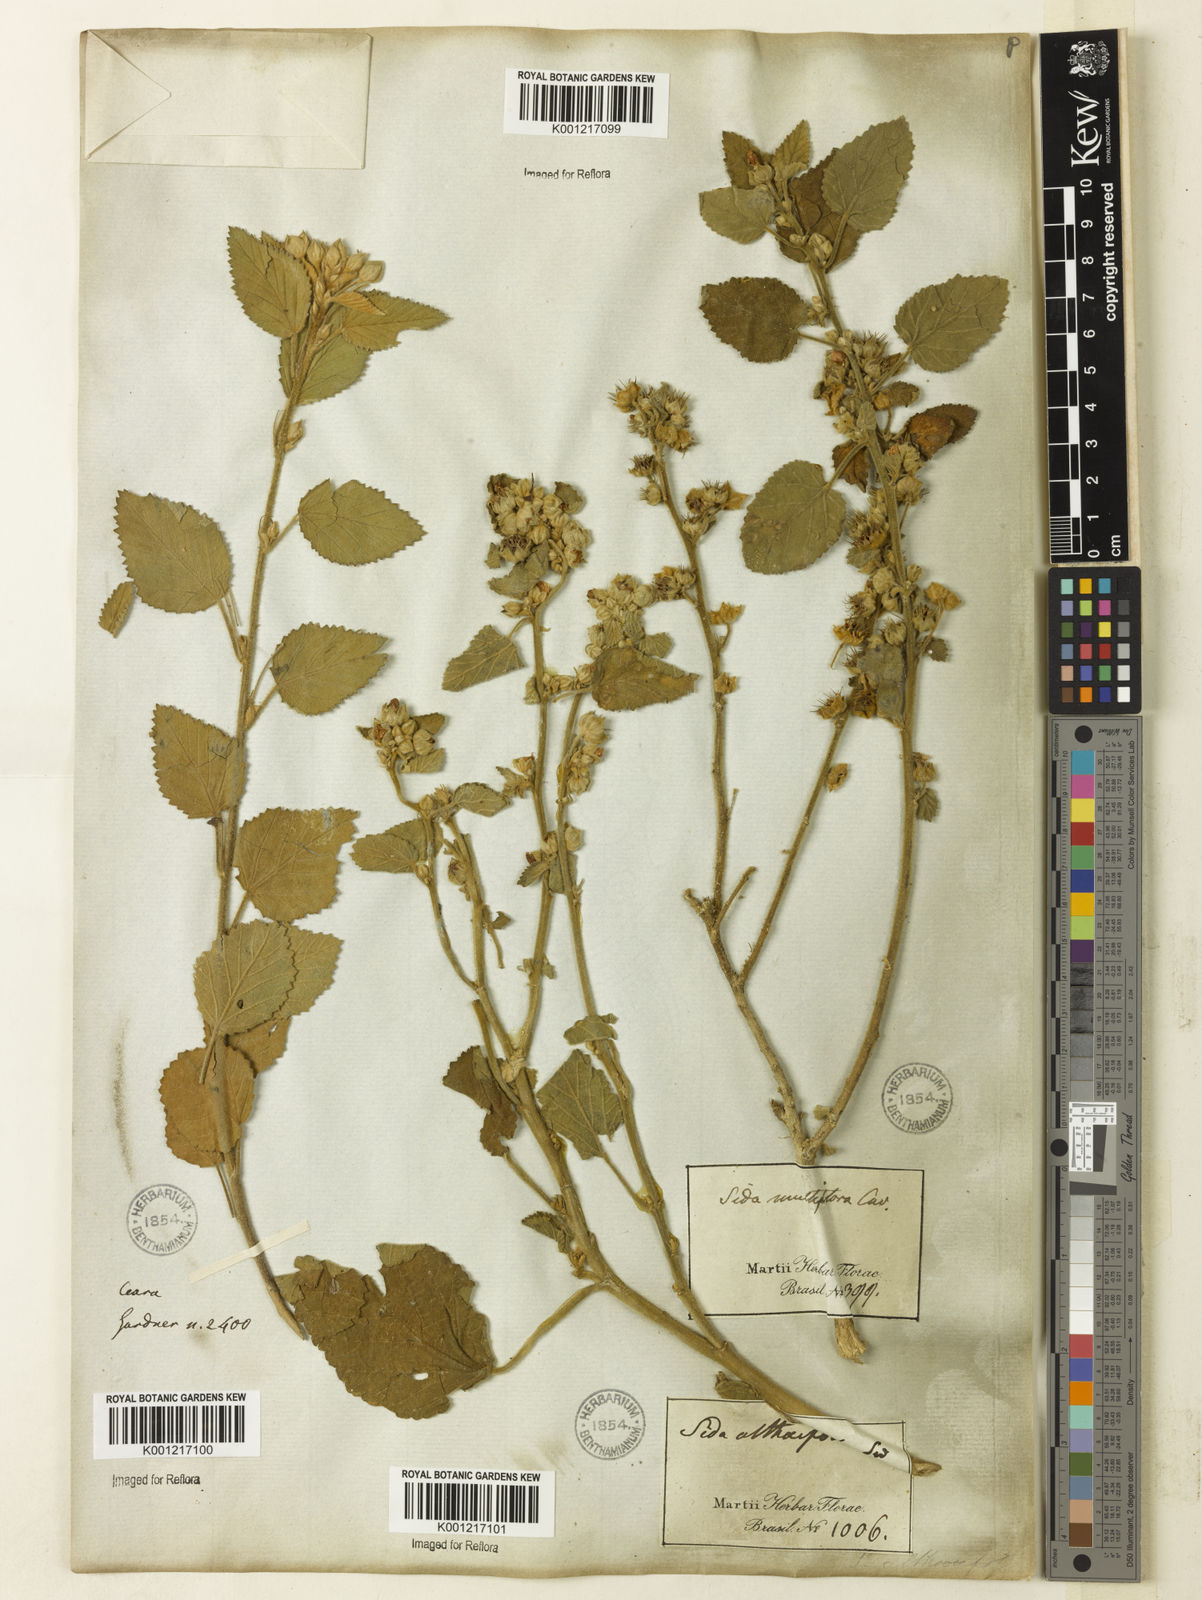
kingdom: Plantae
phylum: Tracheophyta
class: Magnoliopsida
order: Malvales
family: Malvaceae
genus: Sida
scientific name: Sida cordifolia
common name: Ilima
